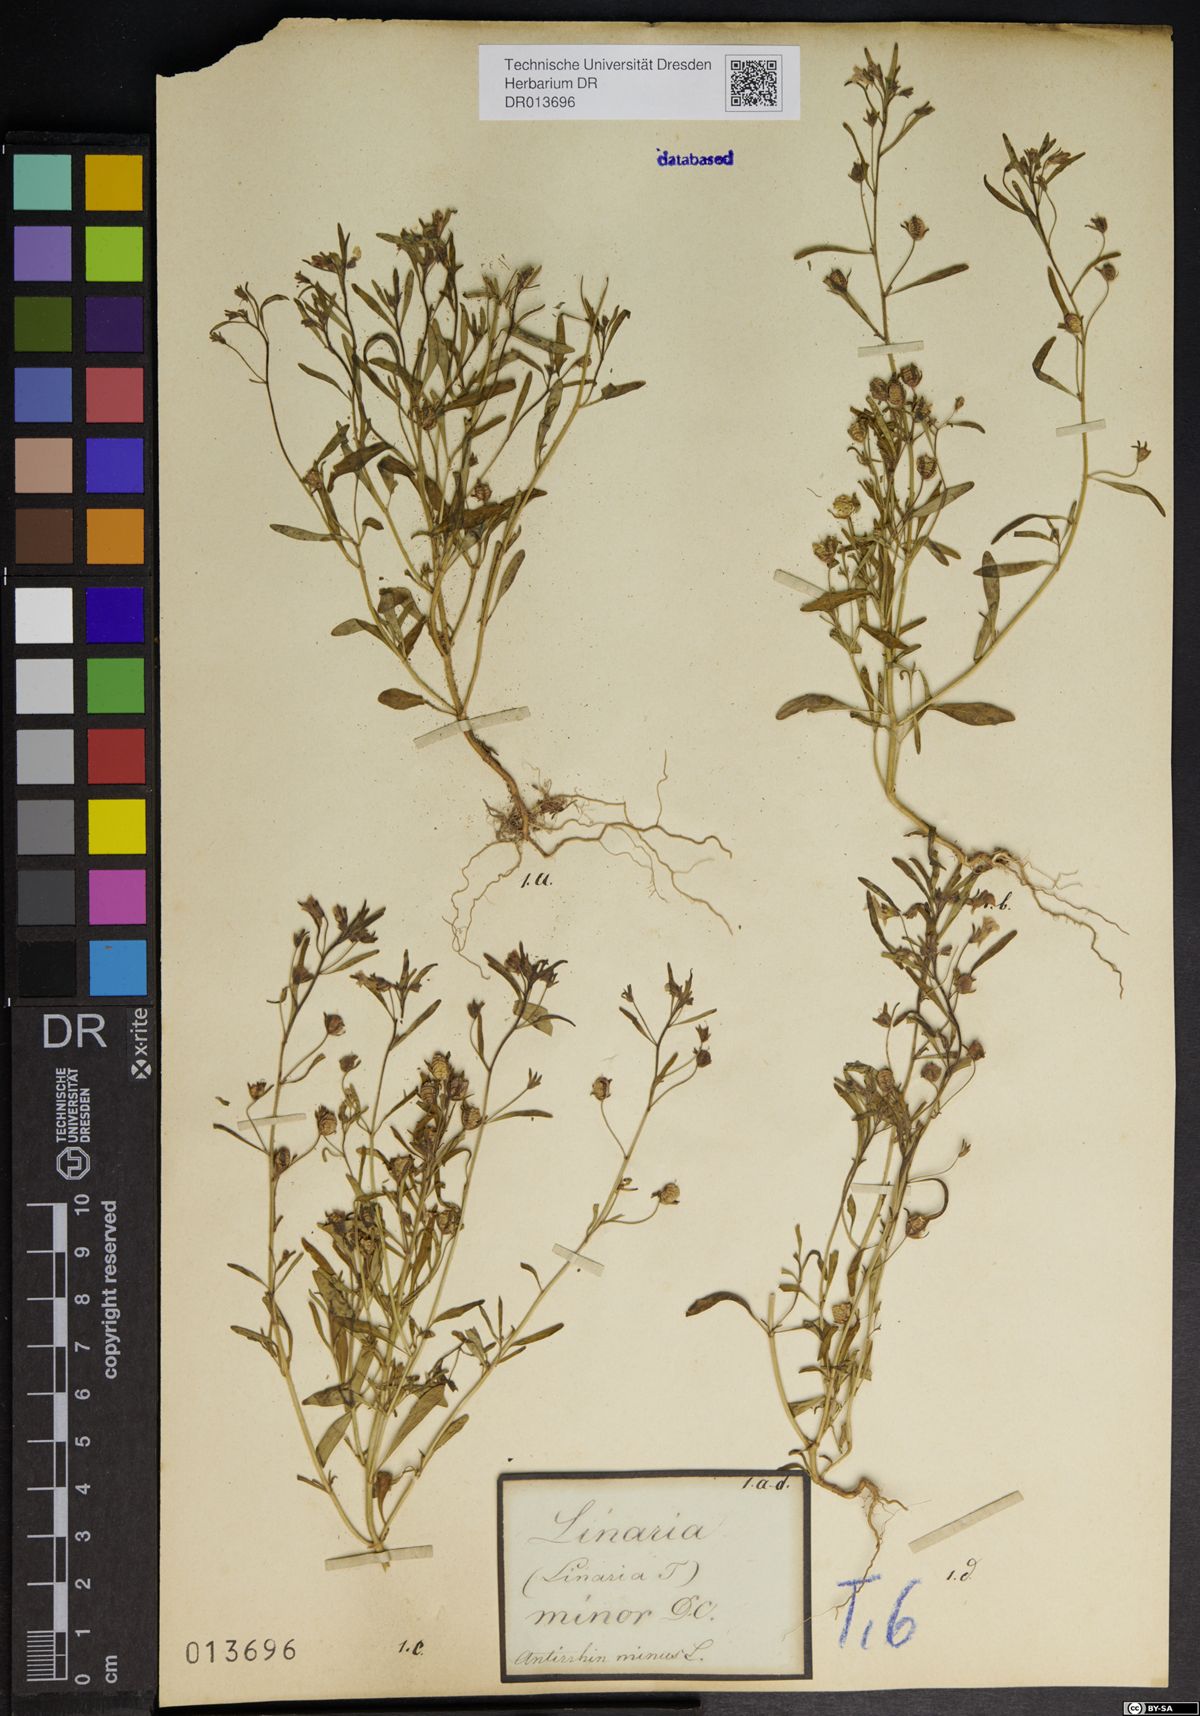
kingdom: Plantae
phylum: Tracheophyta
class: Magnoliopsida
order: Lamiales
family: Plantaginaceae
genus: Chaenorhinum
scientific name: Chaenorhinum minus
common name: Dwarf snapdragon
